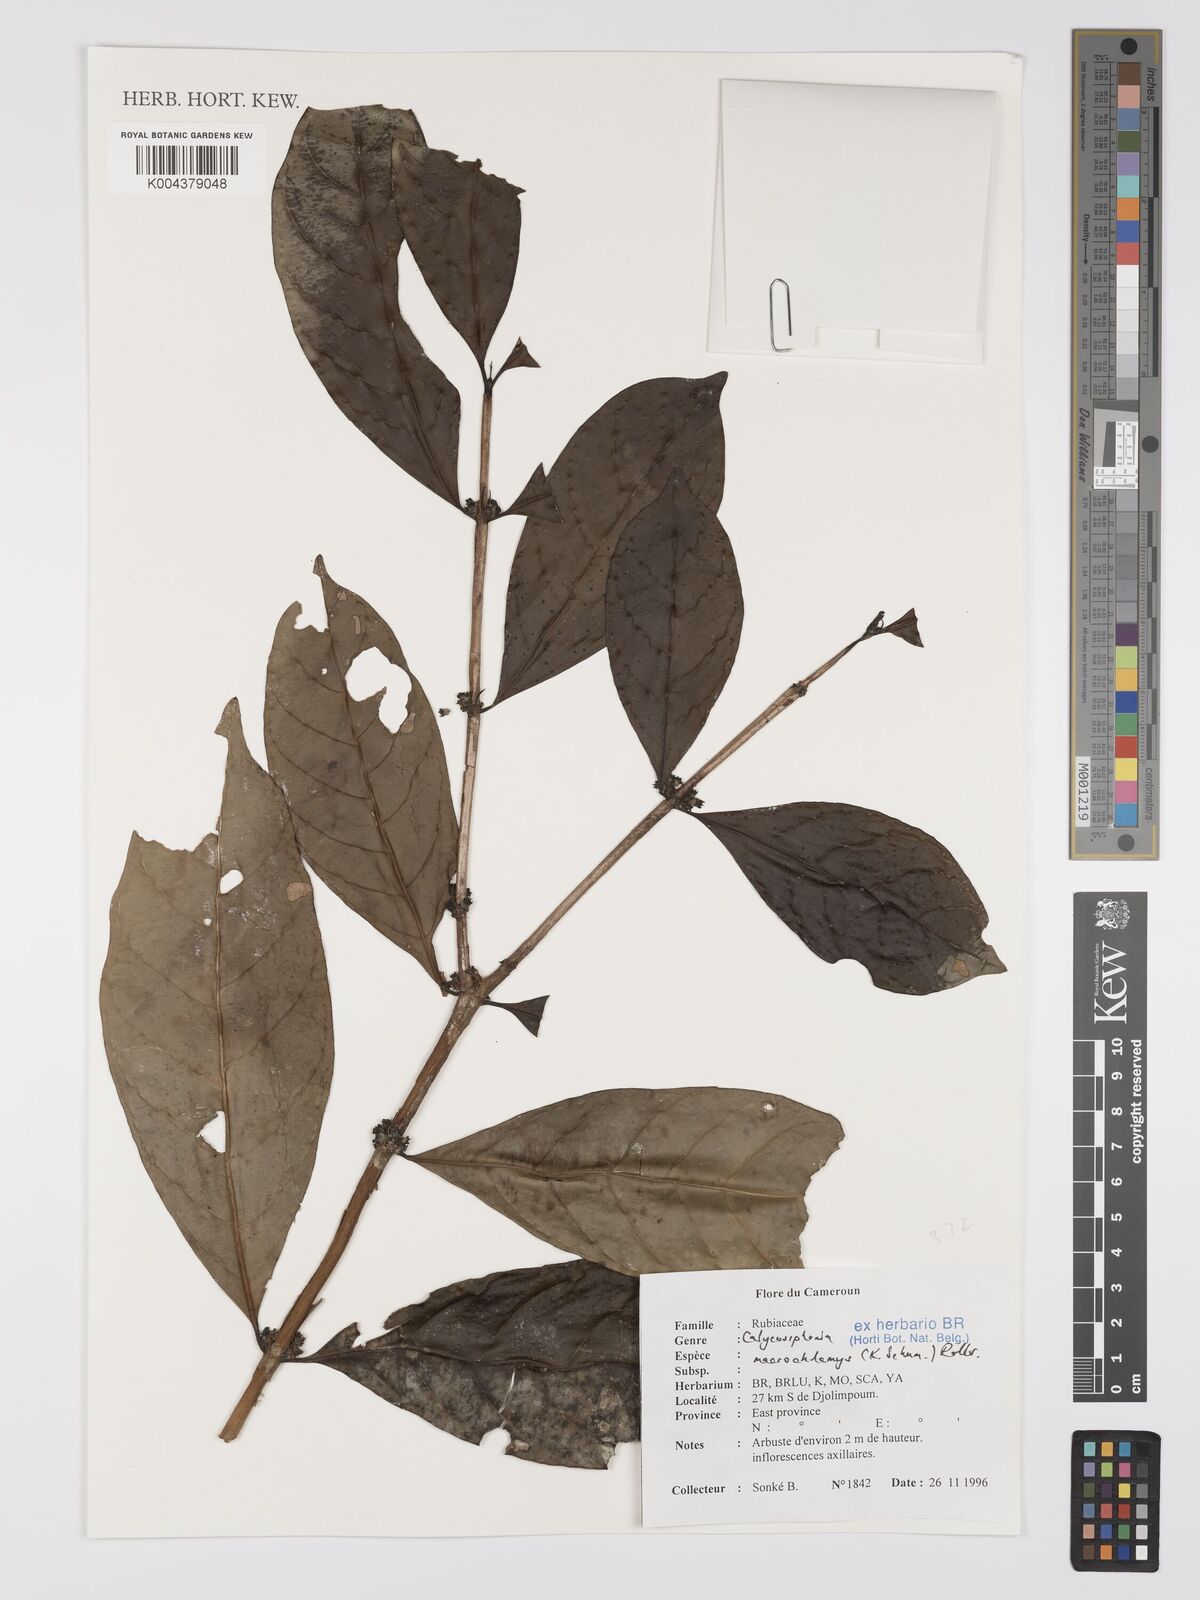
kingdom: Plantae
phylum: Tracheophyta
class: Magnoliopsida
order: Gentianales
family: Rubiaceae
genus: Calycosiphonia
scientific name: Calycosiphonia macrochlamys
